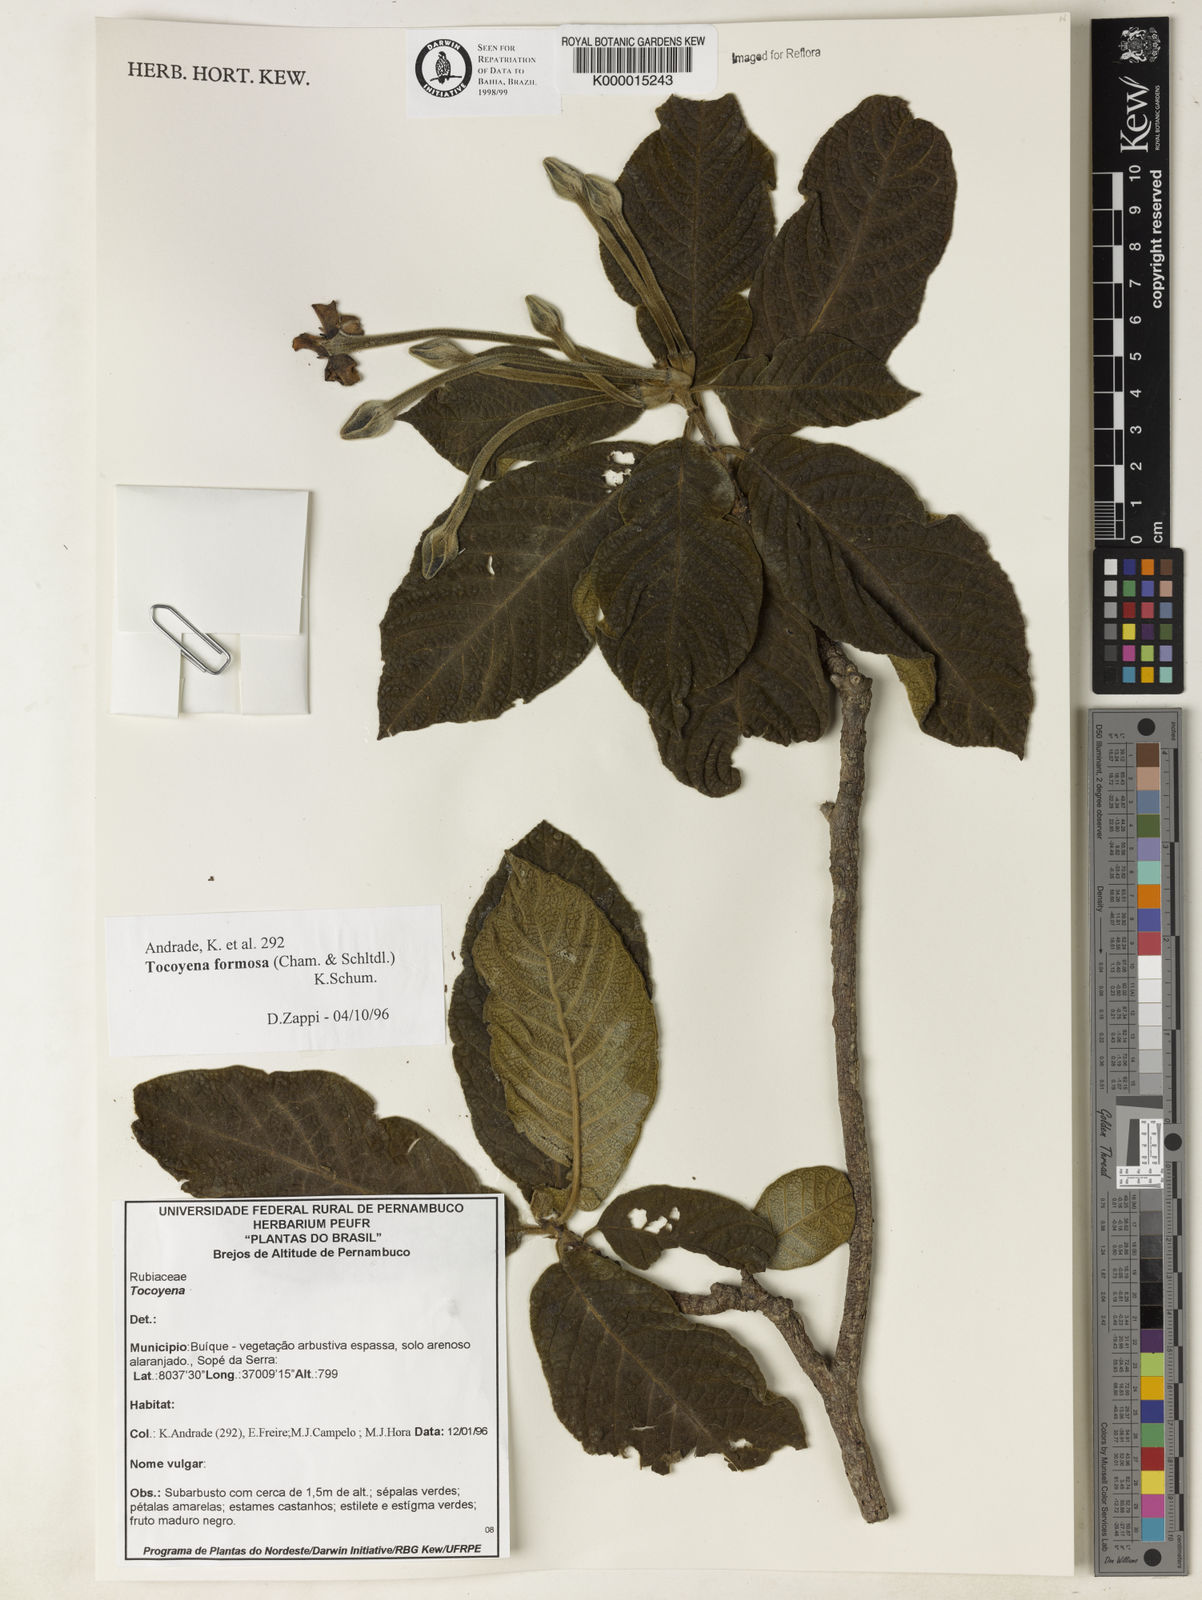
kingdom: Plantae
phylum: Tracheophyta
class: Magnoliopsida
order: Gentianales
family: Rubiaceae
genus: Tocoyena
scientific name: Tocoyena formosa
